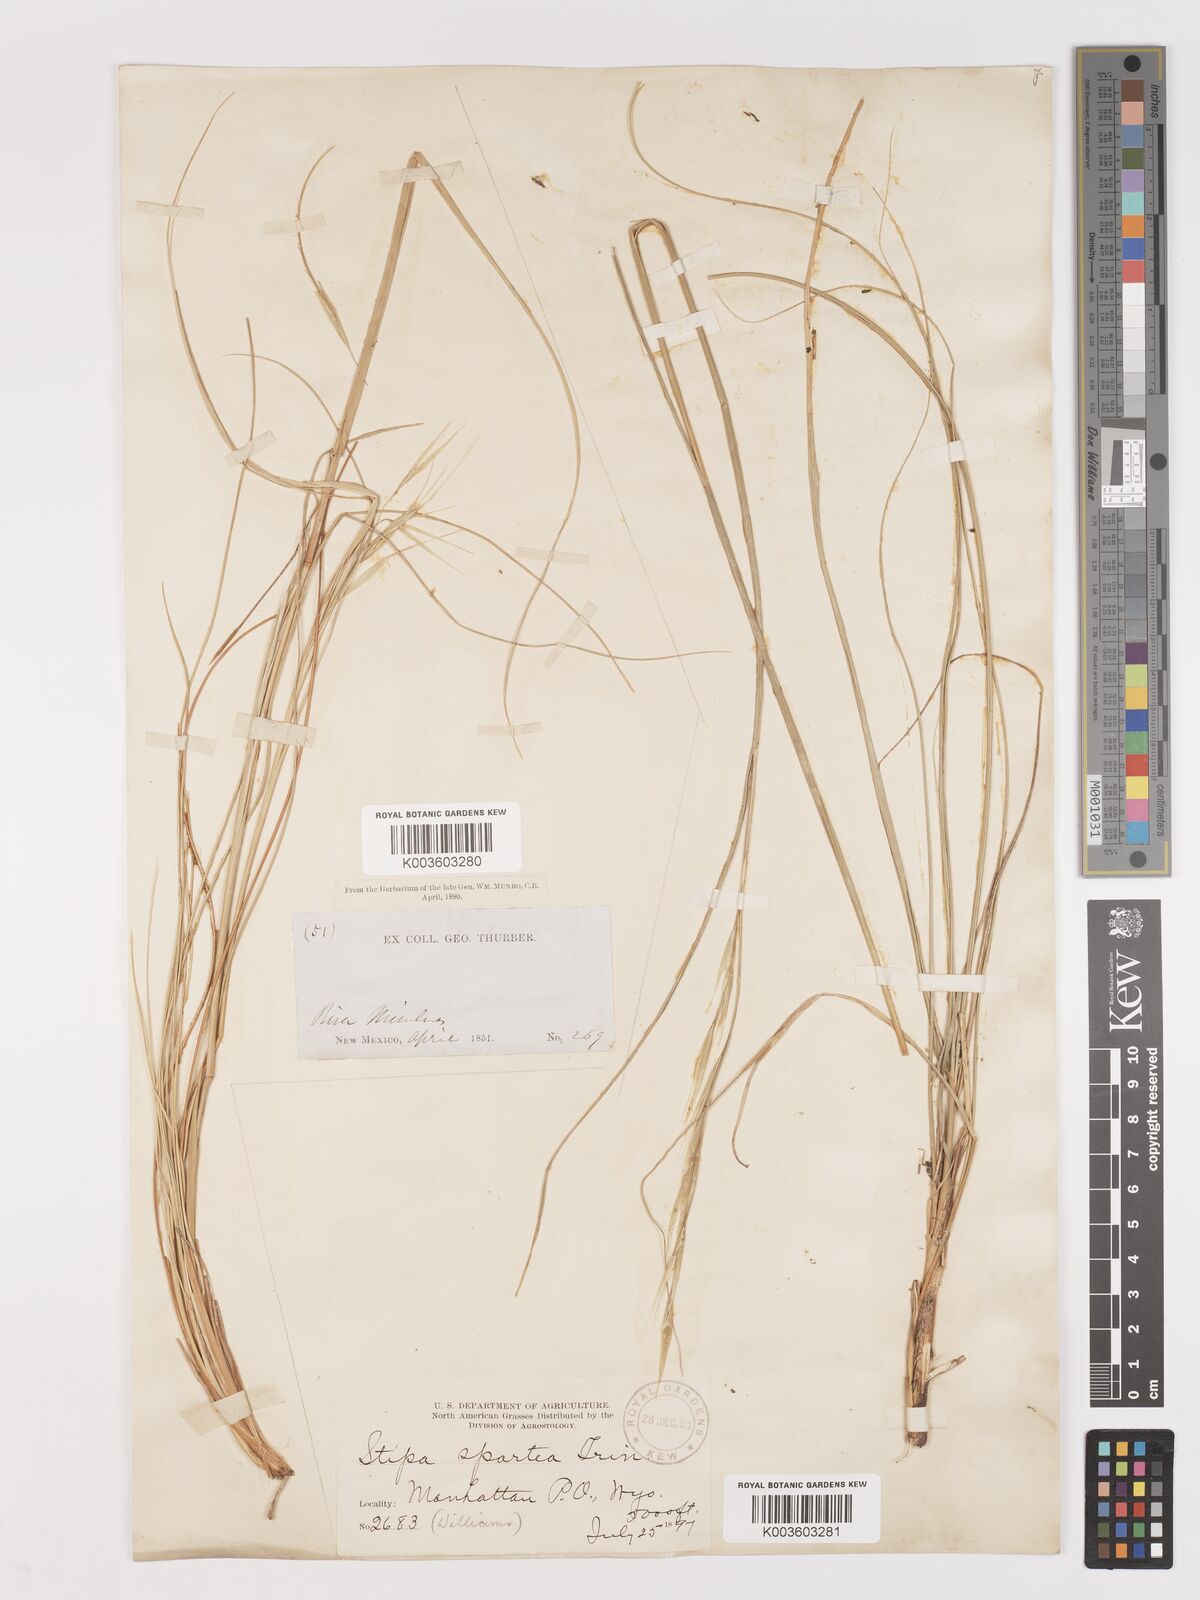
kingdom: Plantae
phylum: Tracheophyta
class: Liliopsida
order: Poales
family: Poaceae
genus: Hesperostipa
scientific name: Hesperostipa spartea
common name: Porcupine grass
